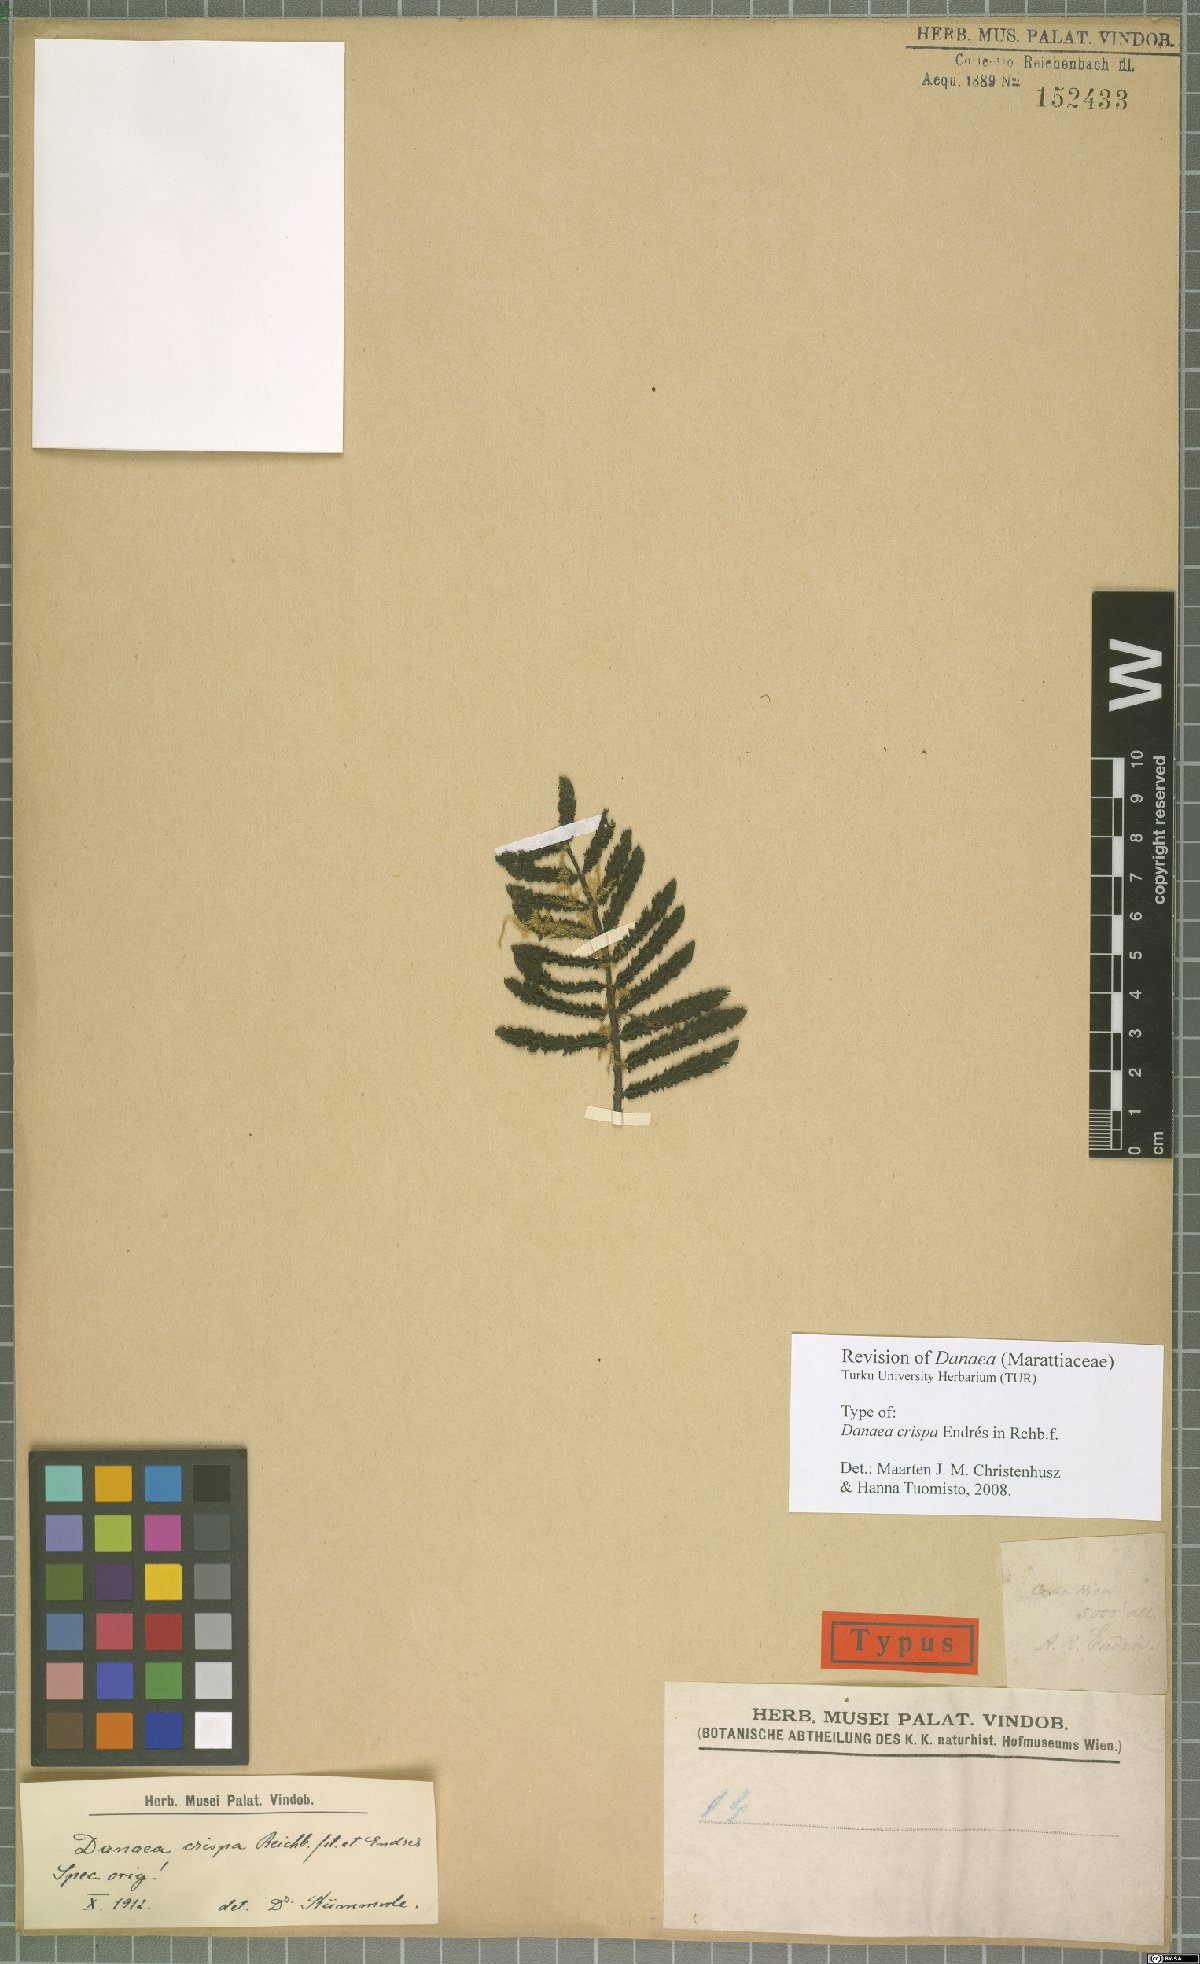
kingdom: Plantae
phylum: Tracheophyta
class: Polypodiopsida
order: Marattiales
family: Marattiaceae
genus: Danaea
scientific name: Danaea crispa
